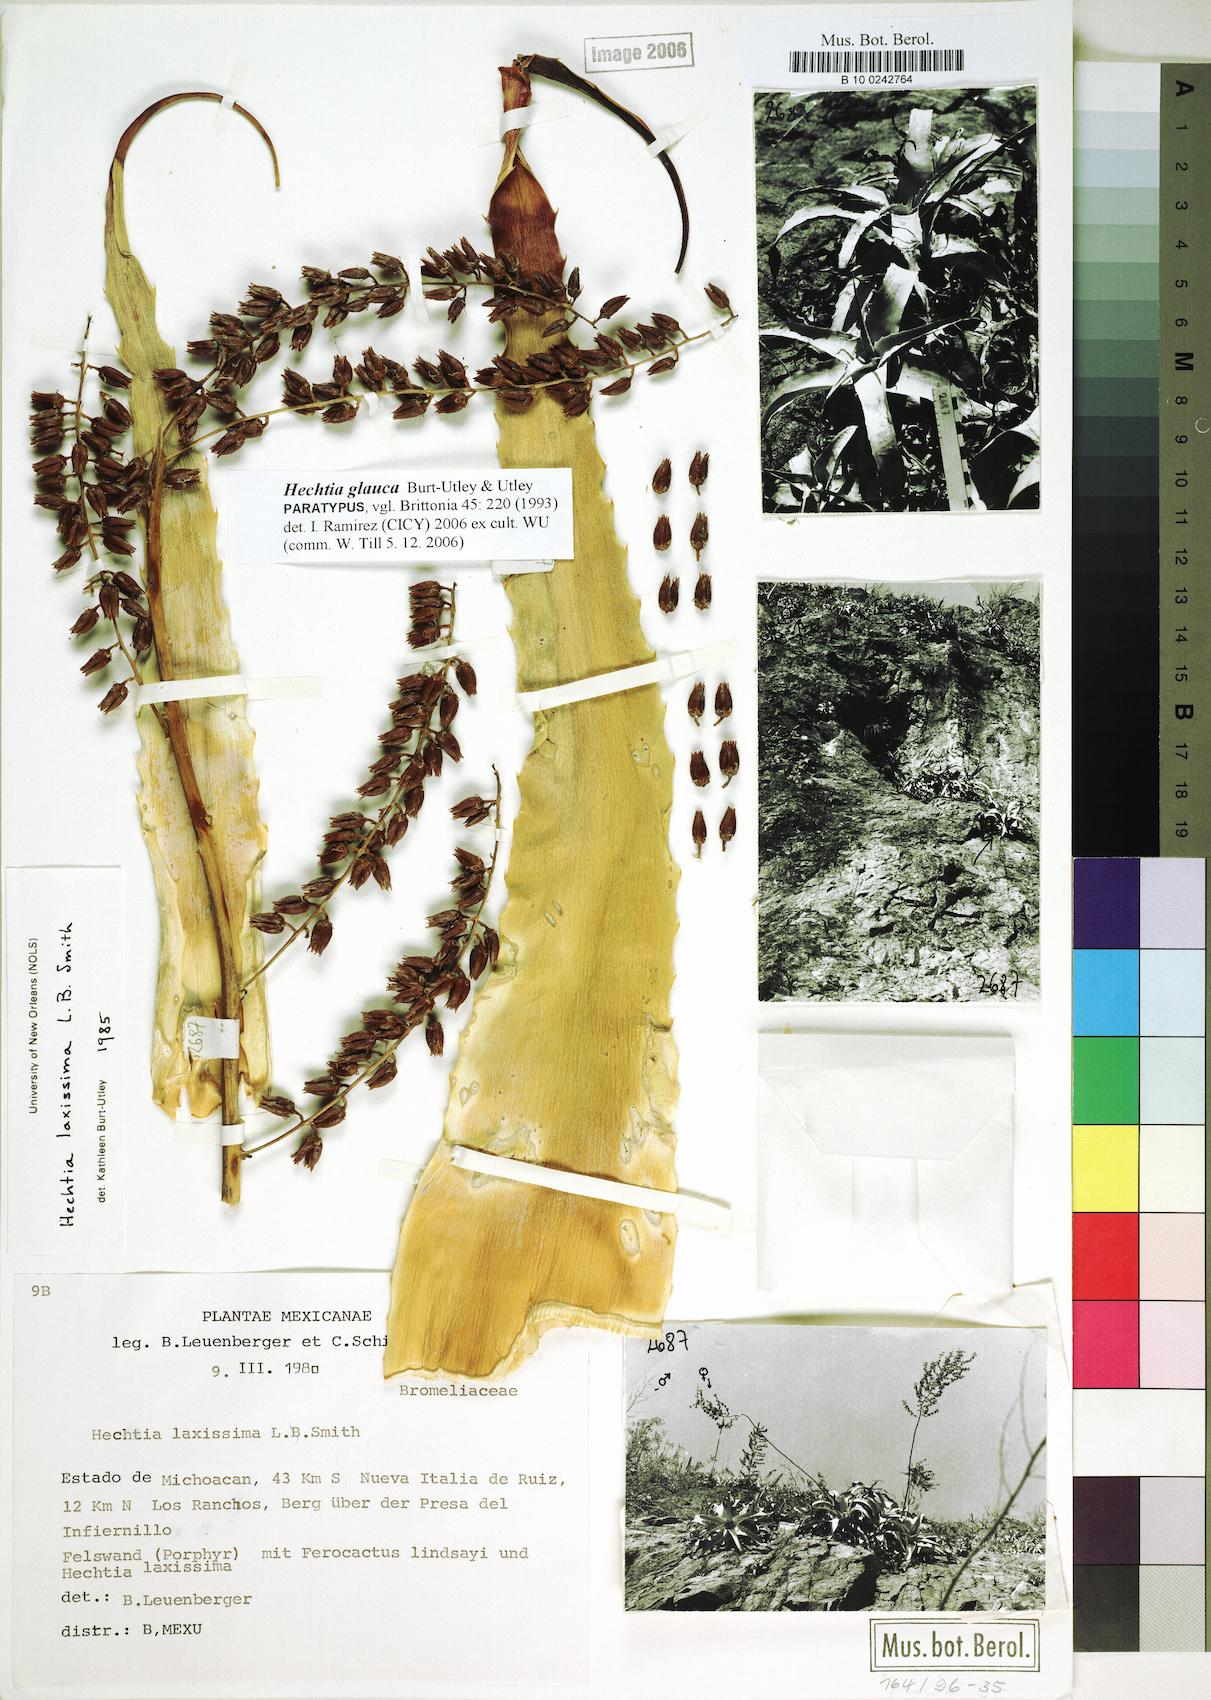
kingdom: Plantae
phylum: Tracheophyta
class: Liliopsida
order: Poales
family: Bromeliaceae
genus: Hechtia
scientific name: Hechtia glauca
